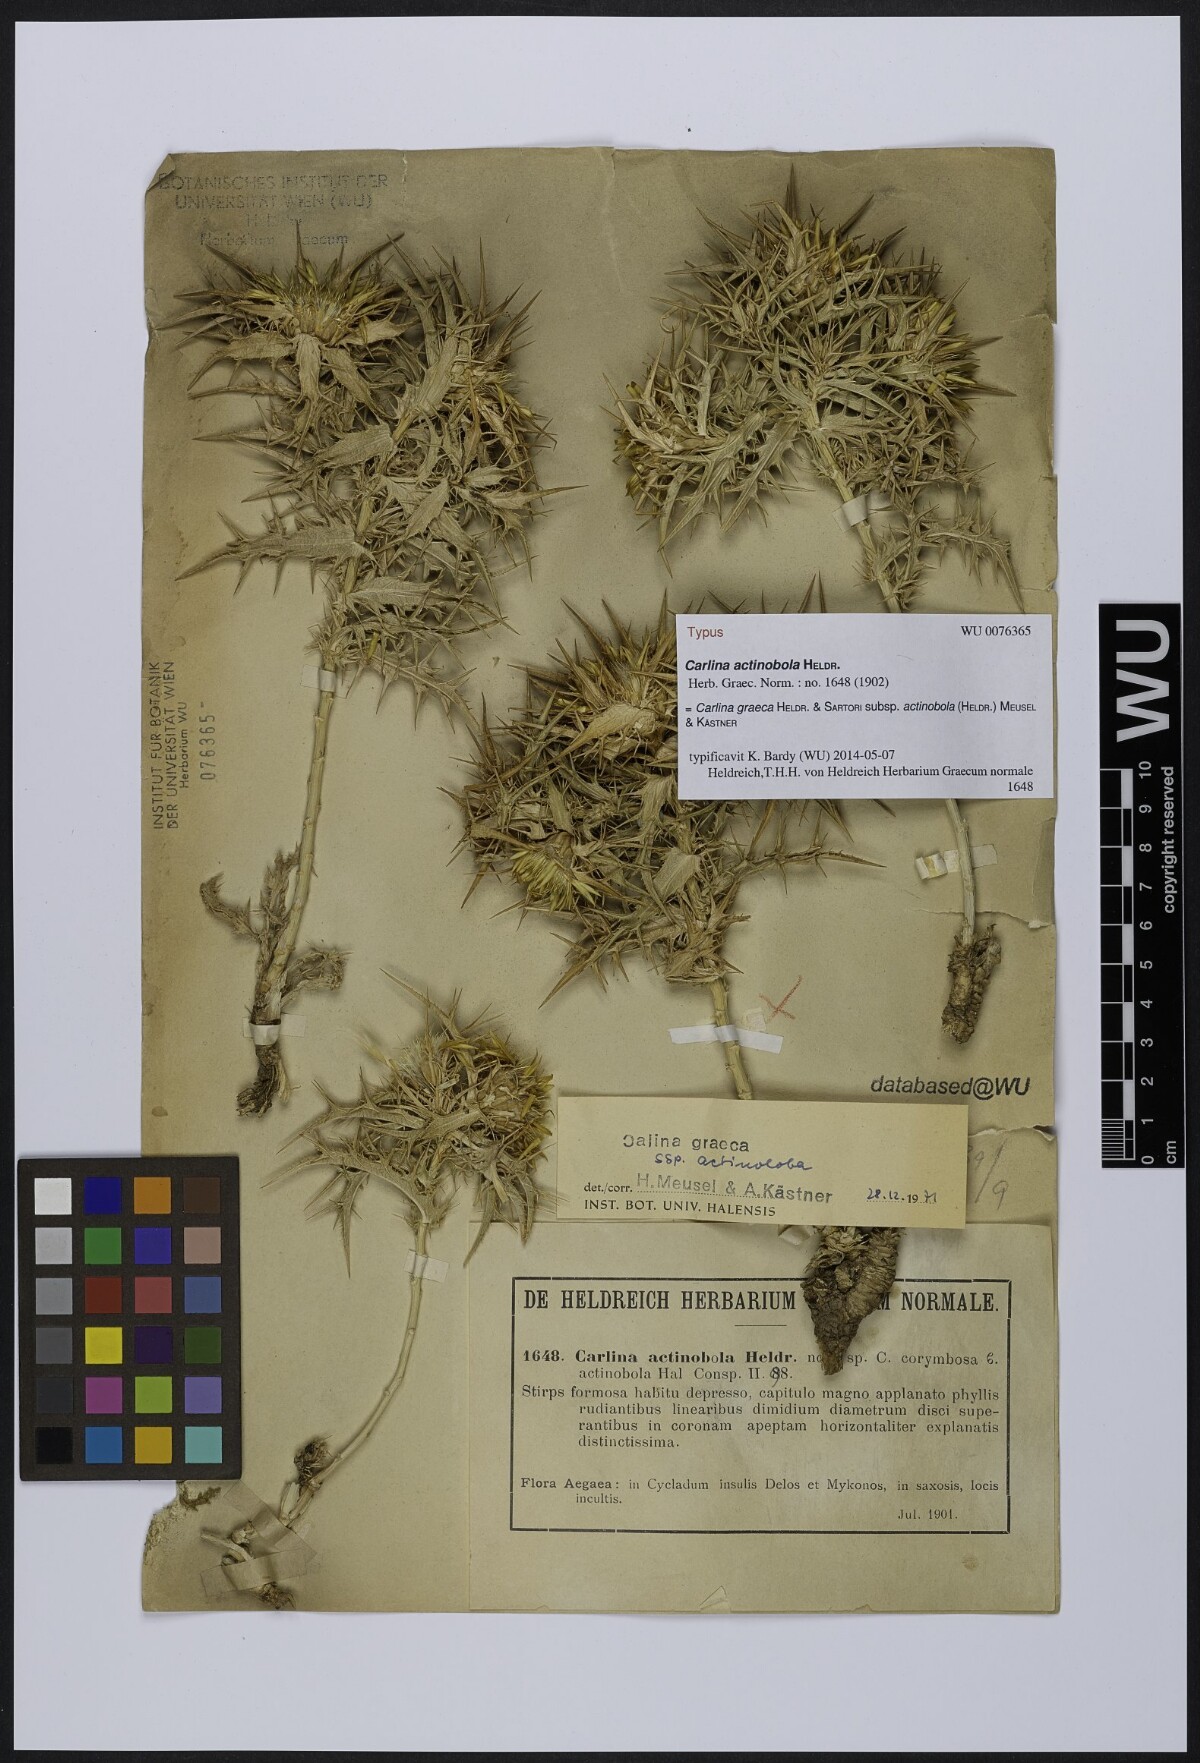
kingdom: Plantae
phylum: Tracheophyta
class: Magnoliopsida
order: Asterales
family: Asteraceae
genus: Carlina
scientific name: Carlina graeca
